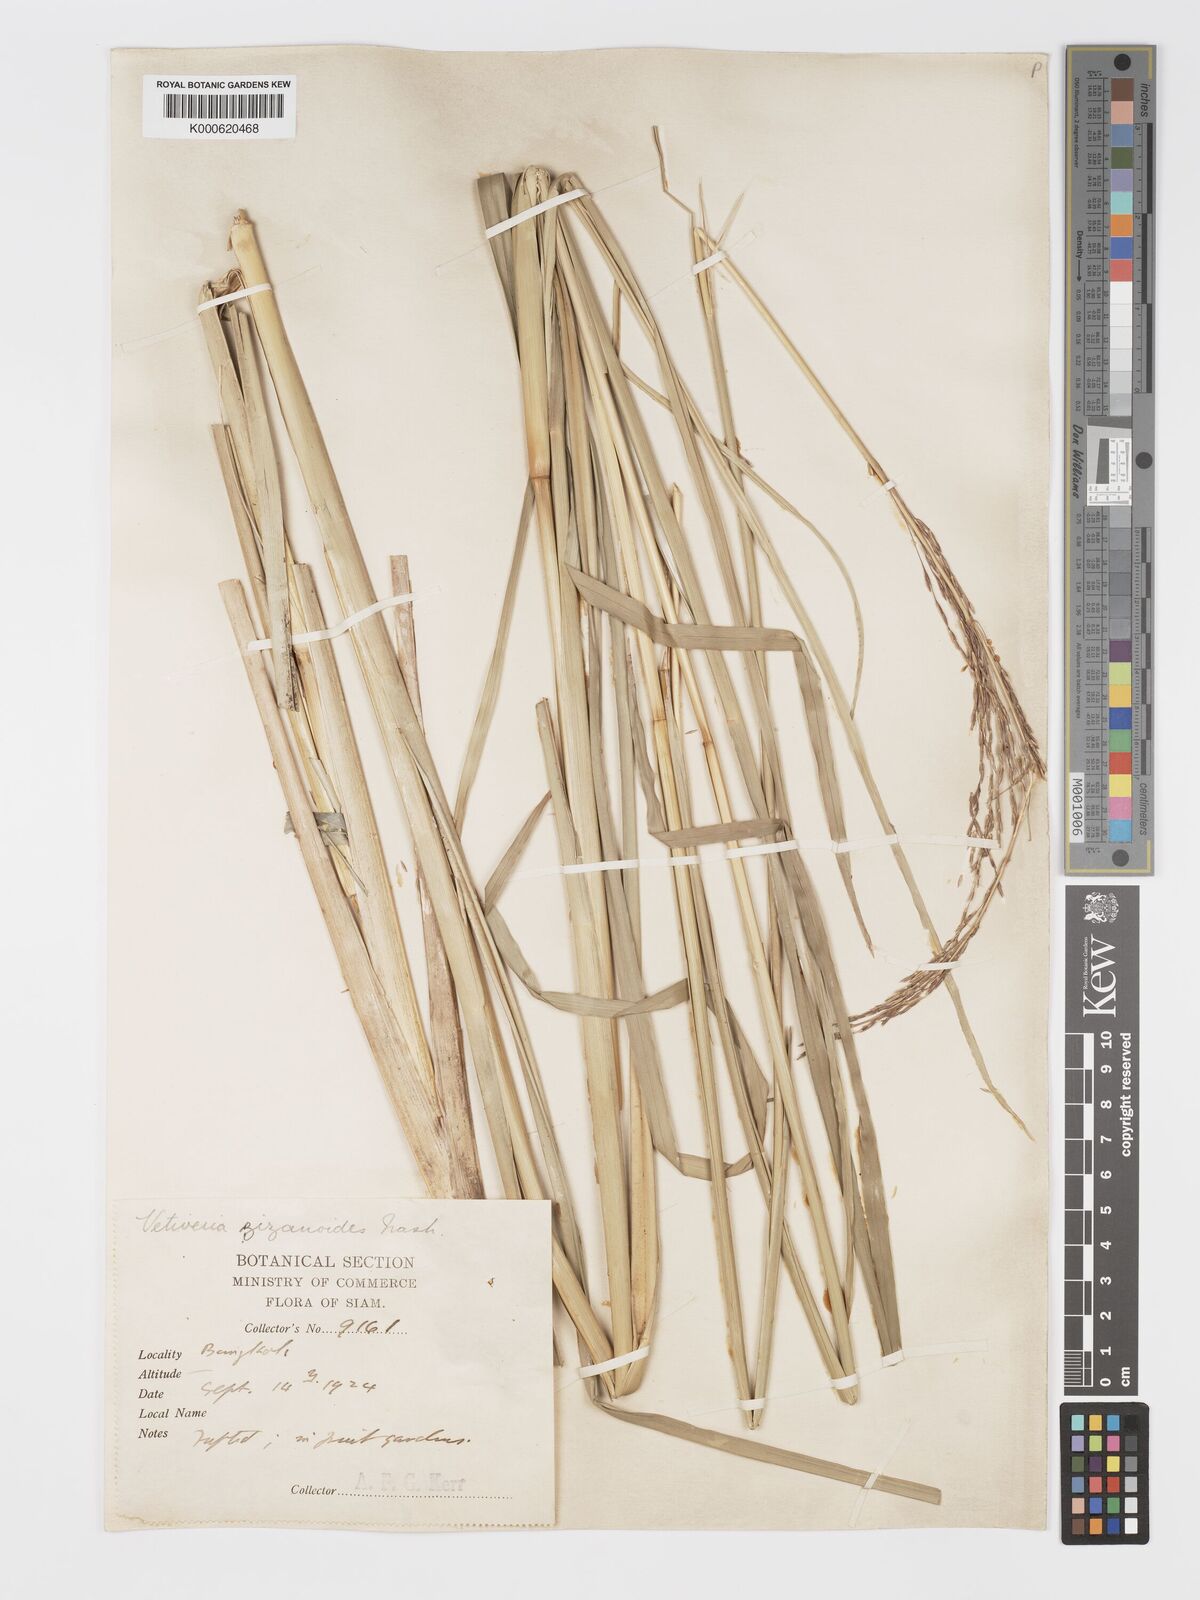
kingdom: Plantae
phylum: Tracheophyta
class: Liliopsida
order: Poales
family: Poaceae
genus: Chrysopogon
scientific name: Chrysopogon zizanioides
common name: False beardgrass
